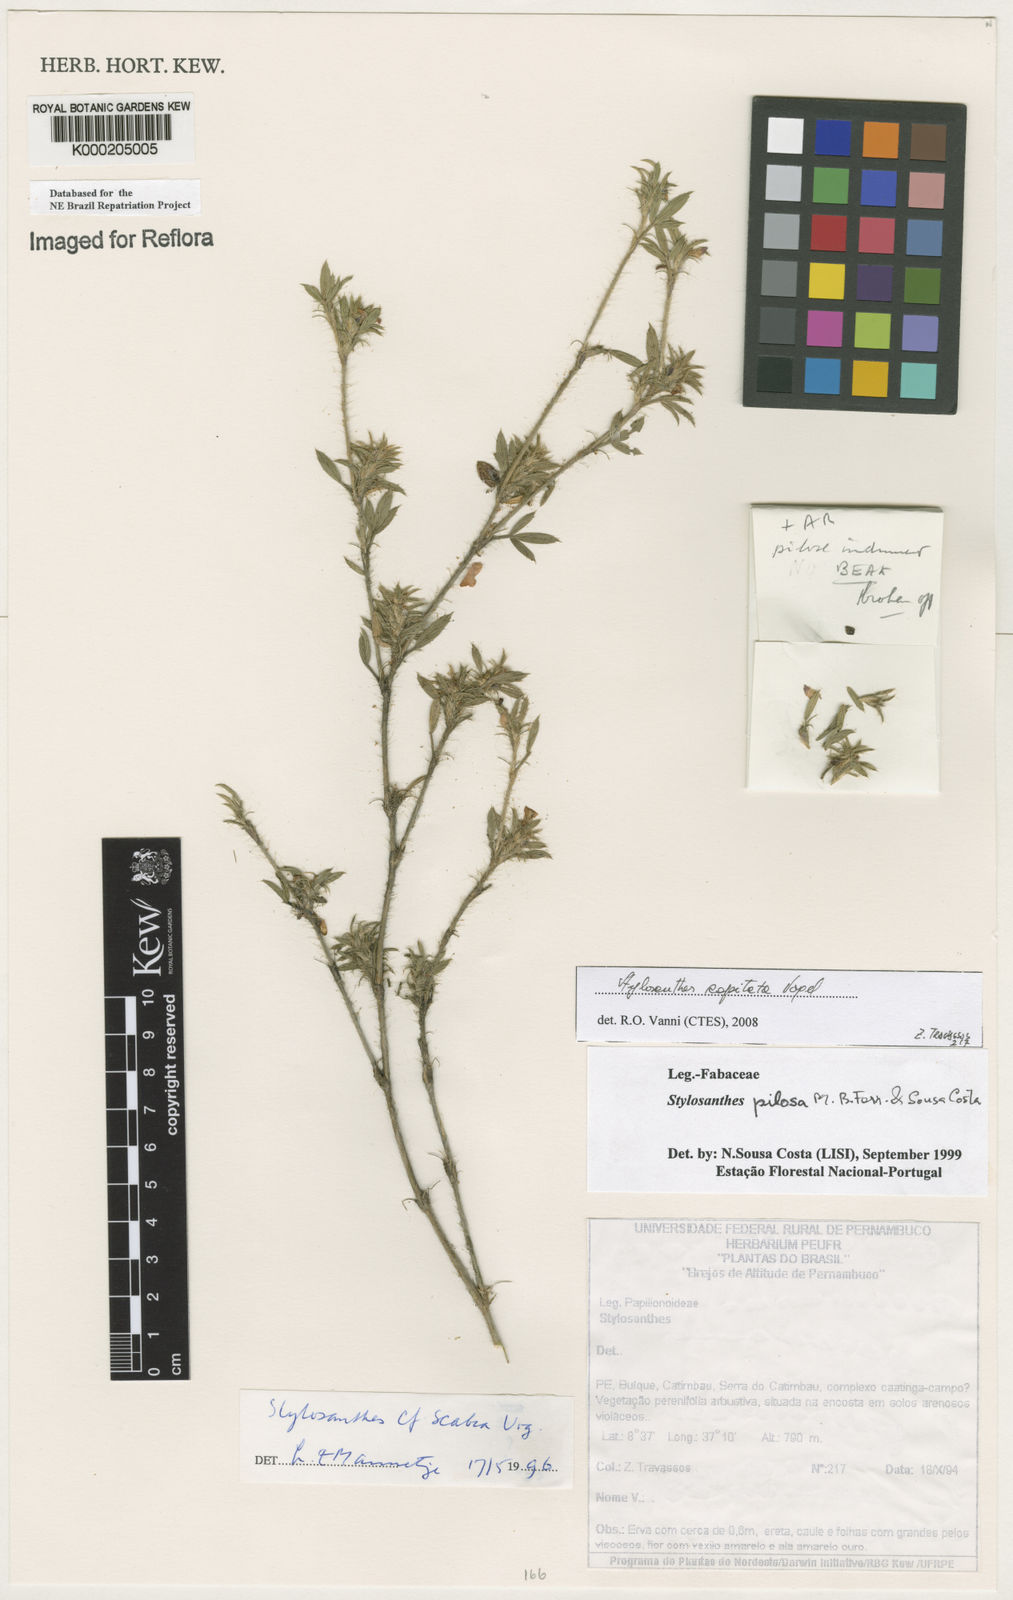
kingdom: Plantae
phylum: Tracheophyta
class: Magnoliopsida
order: Fabales
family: Fabaceae
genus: Stylosanthes
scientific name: Stylosanthes viscosa
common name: Viscid pencil-flower
